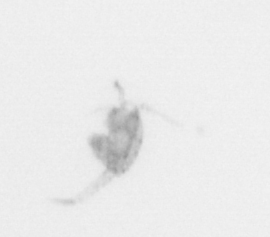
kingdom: Animalia
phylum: Arthropoda
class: Copepoda
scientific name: Copepoda
